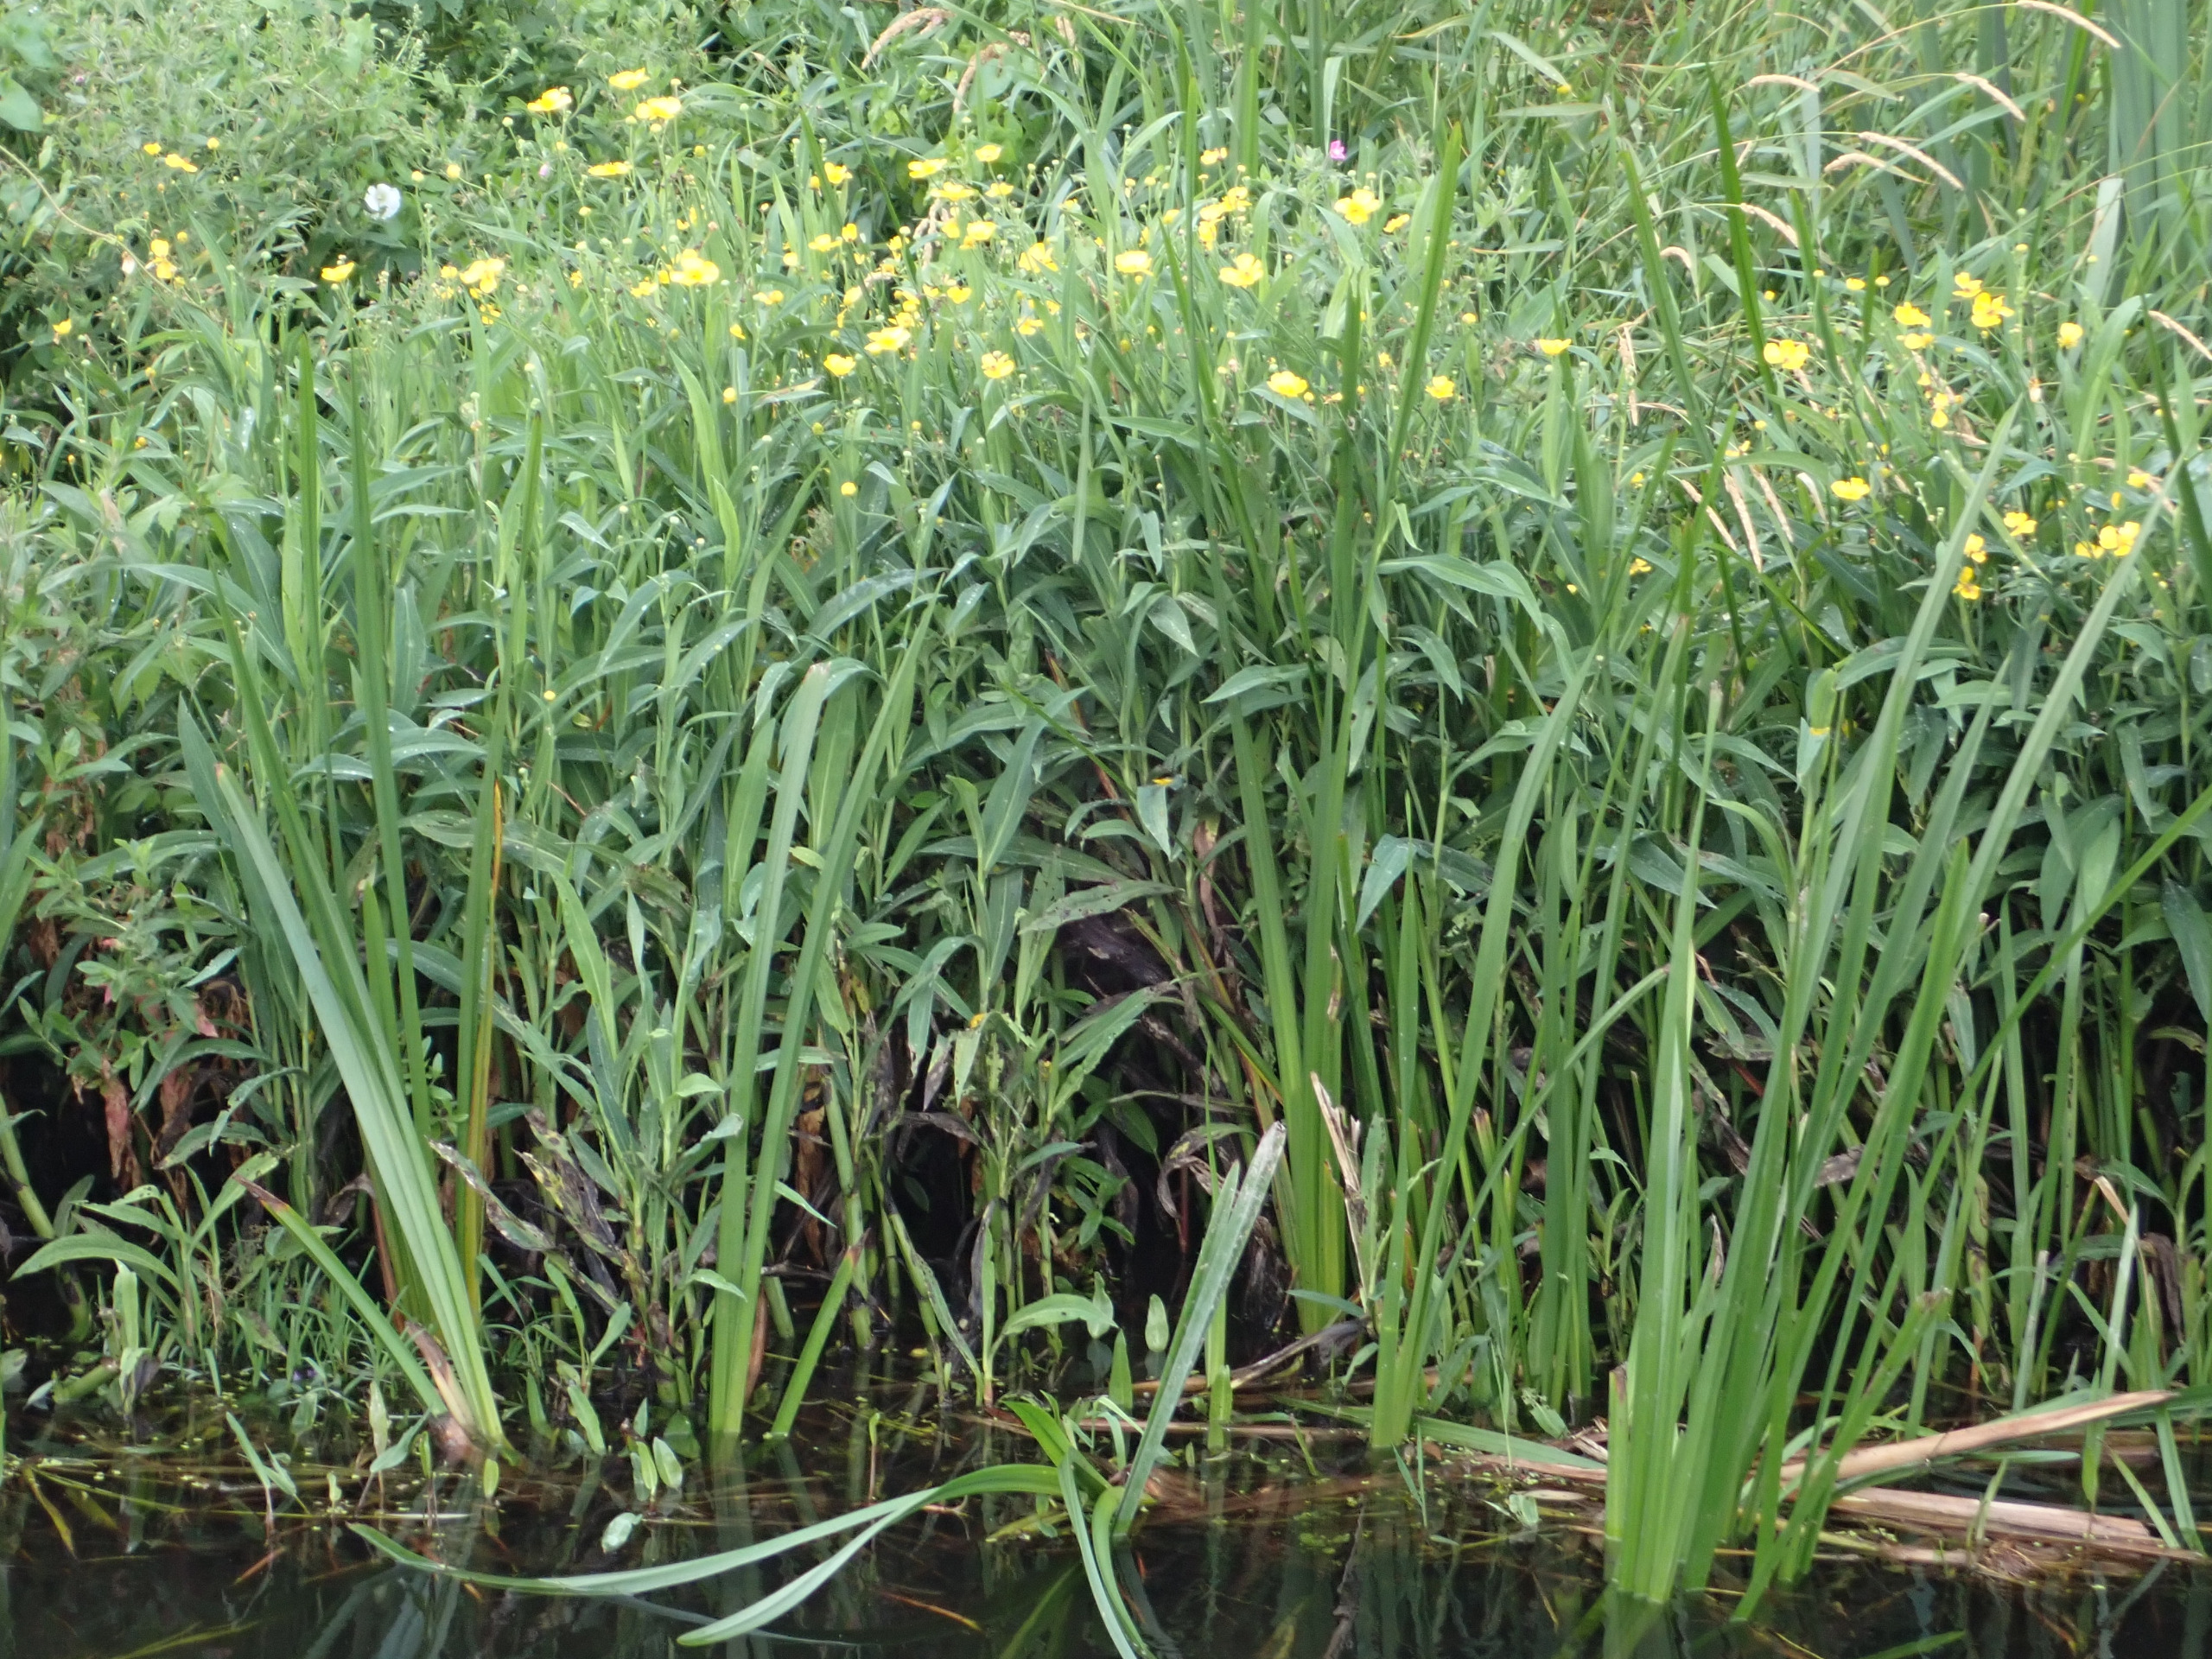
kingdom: Plantae
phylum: Tracheophyta
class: Magnoliopsida
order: Ranunculales
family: Ranunculaceae
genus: Ranunculus
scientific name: Ranunculus lingua
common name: Langbladet ranunkel
